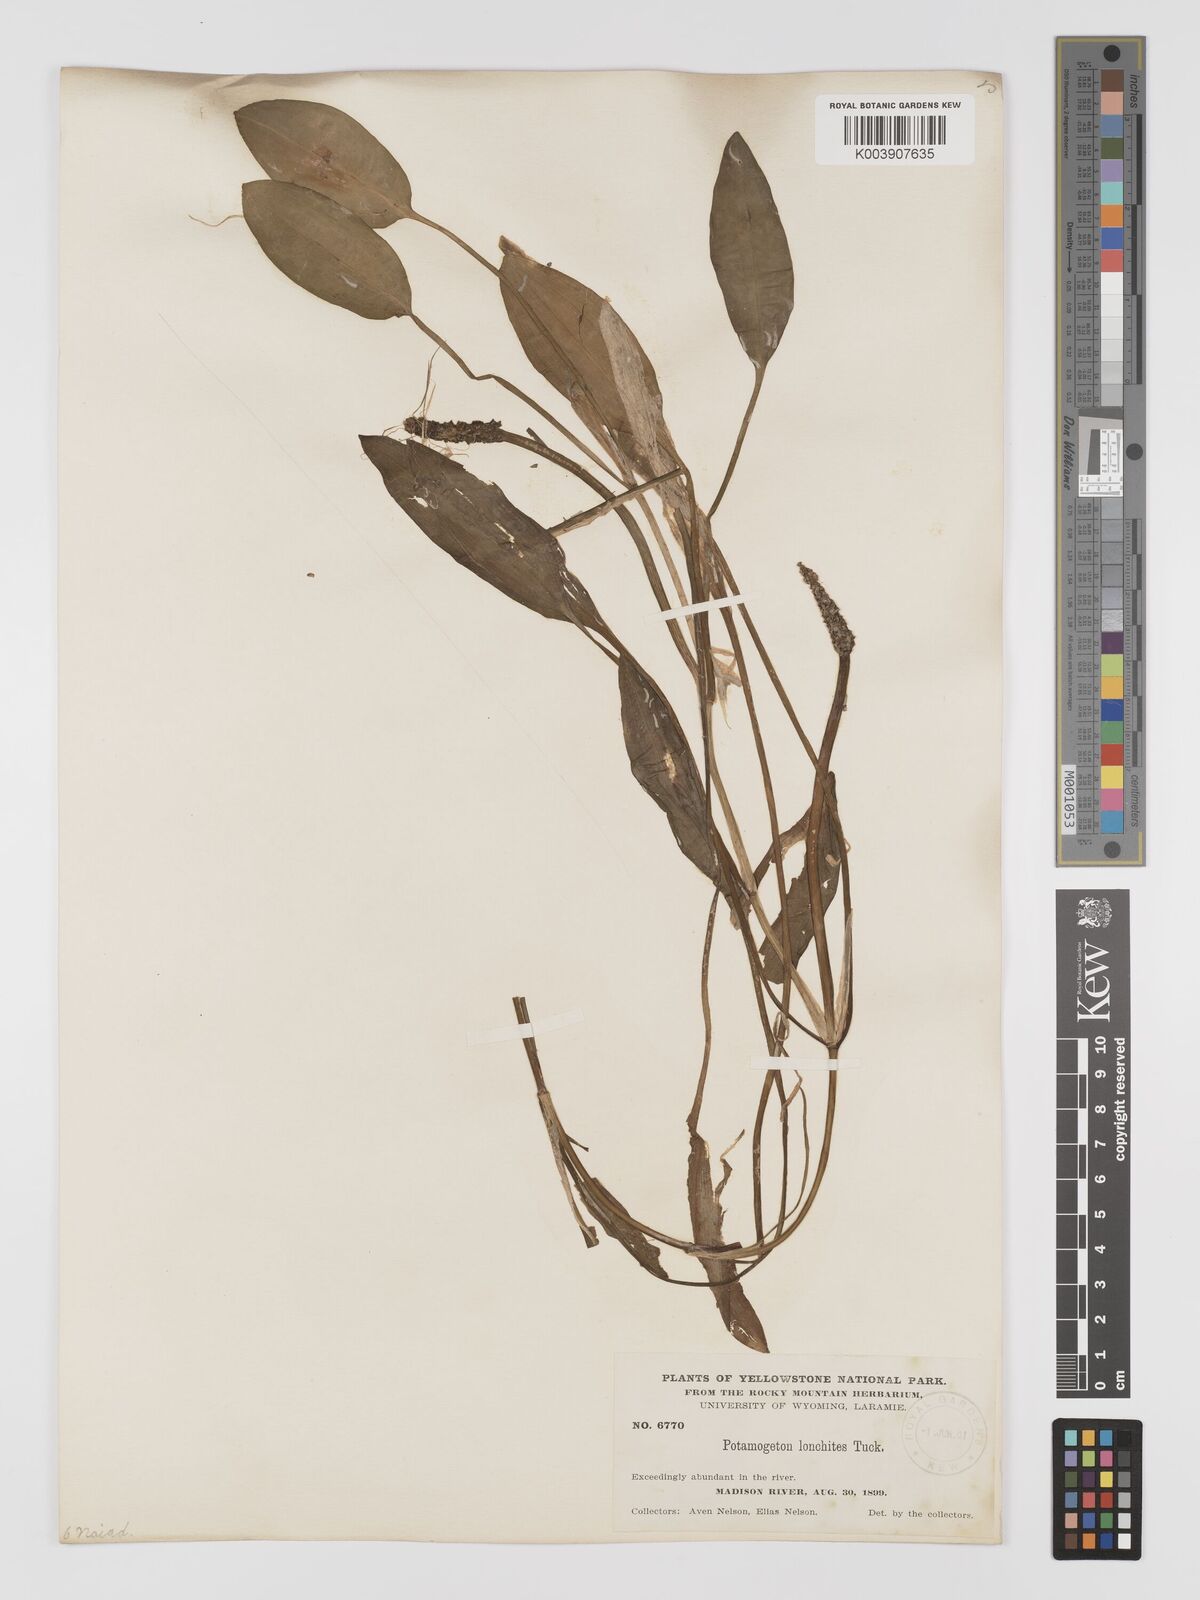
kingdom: Plantae
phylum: Tracheophyta
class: Liliopsida
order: Alismatales
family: Potamogetonaceae
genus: Potamogeton
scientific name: Potamogeton nodosus
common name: Loddon pondweed
